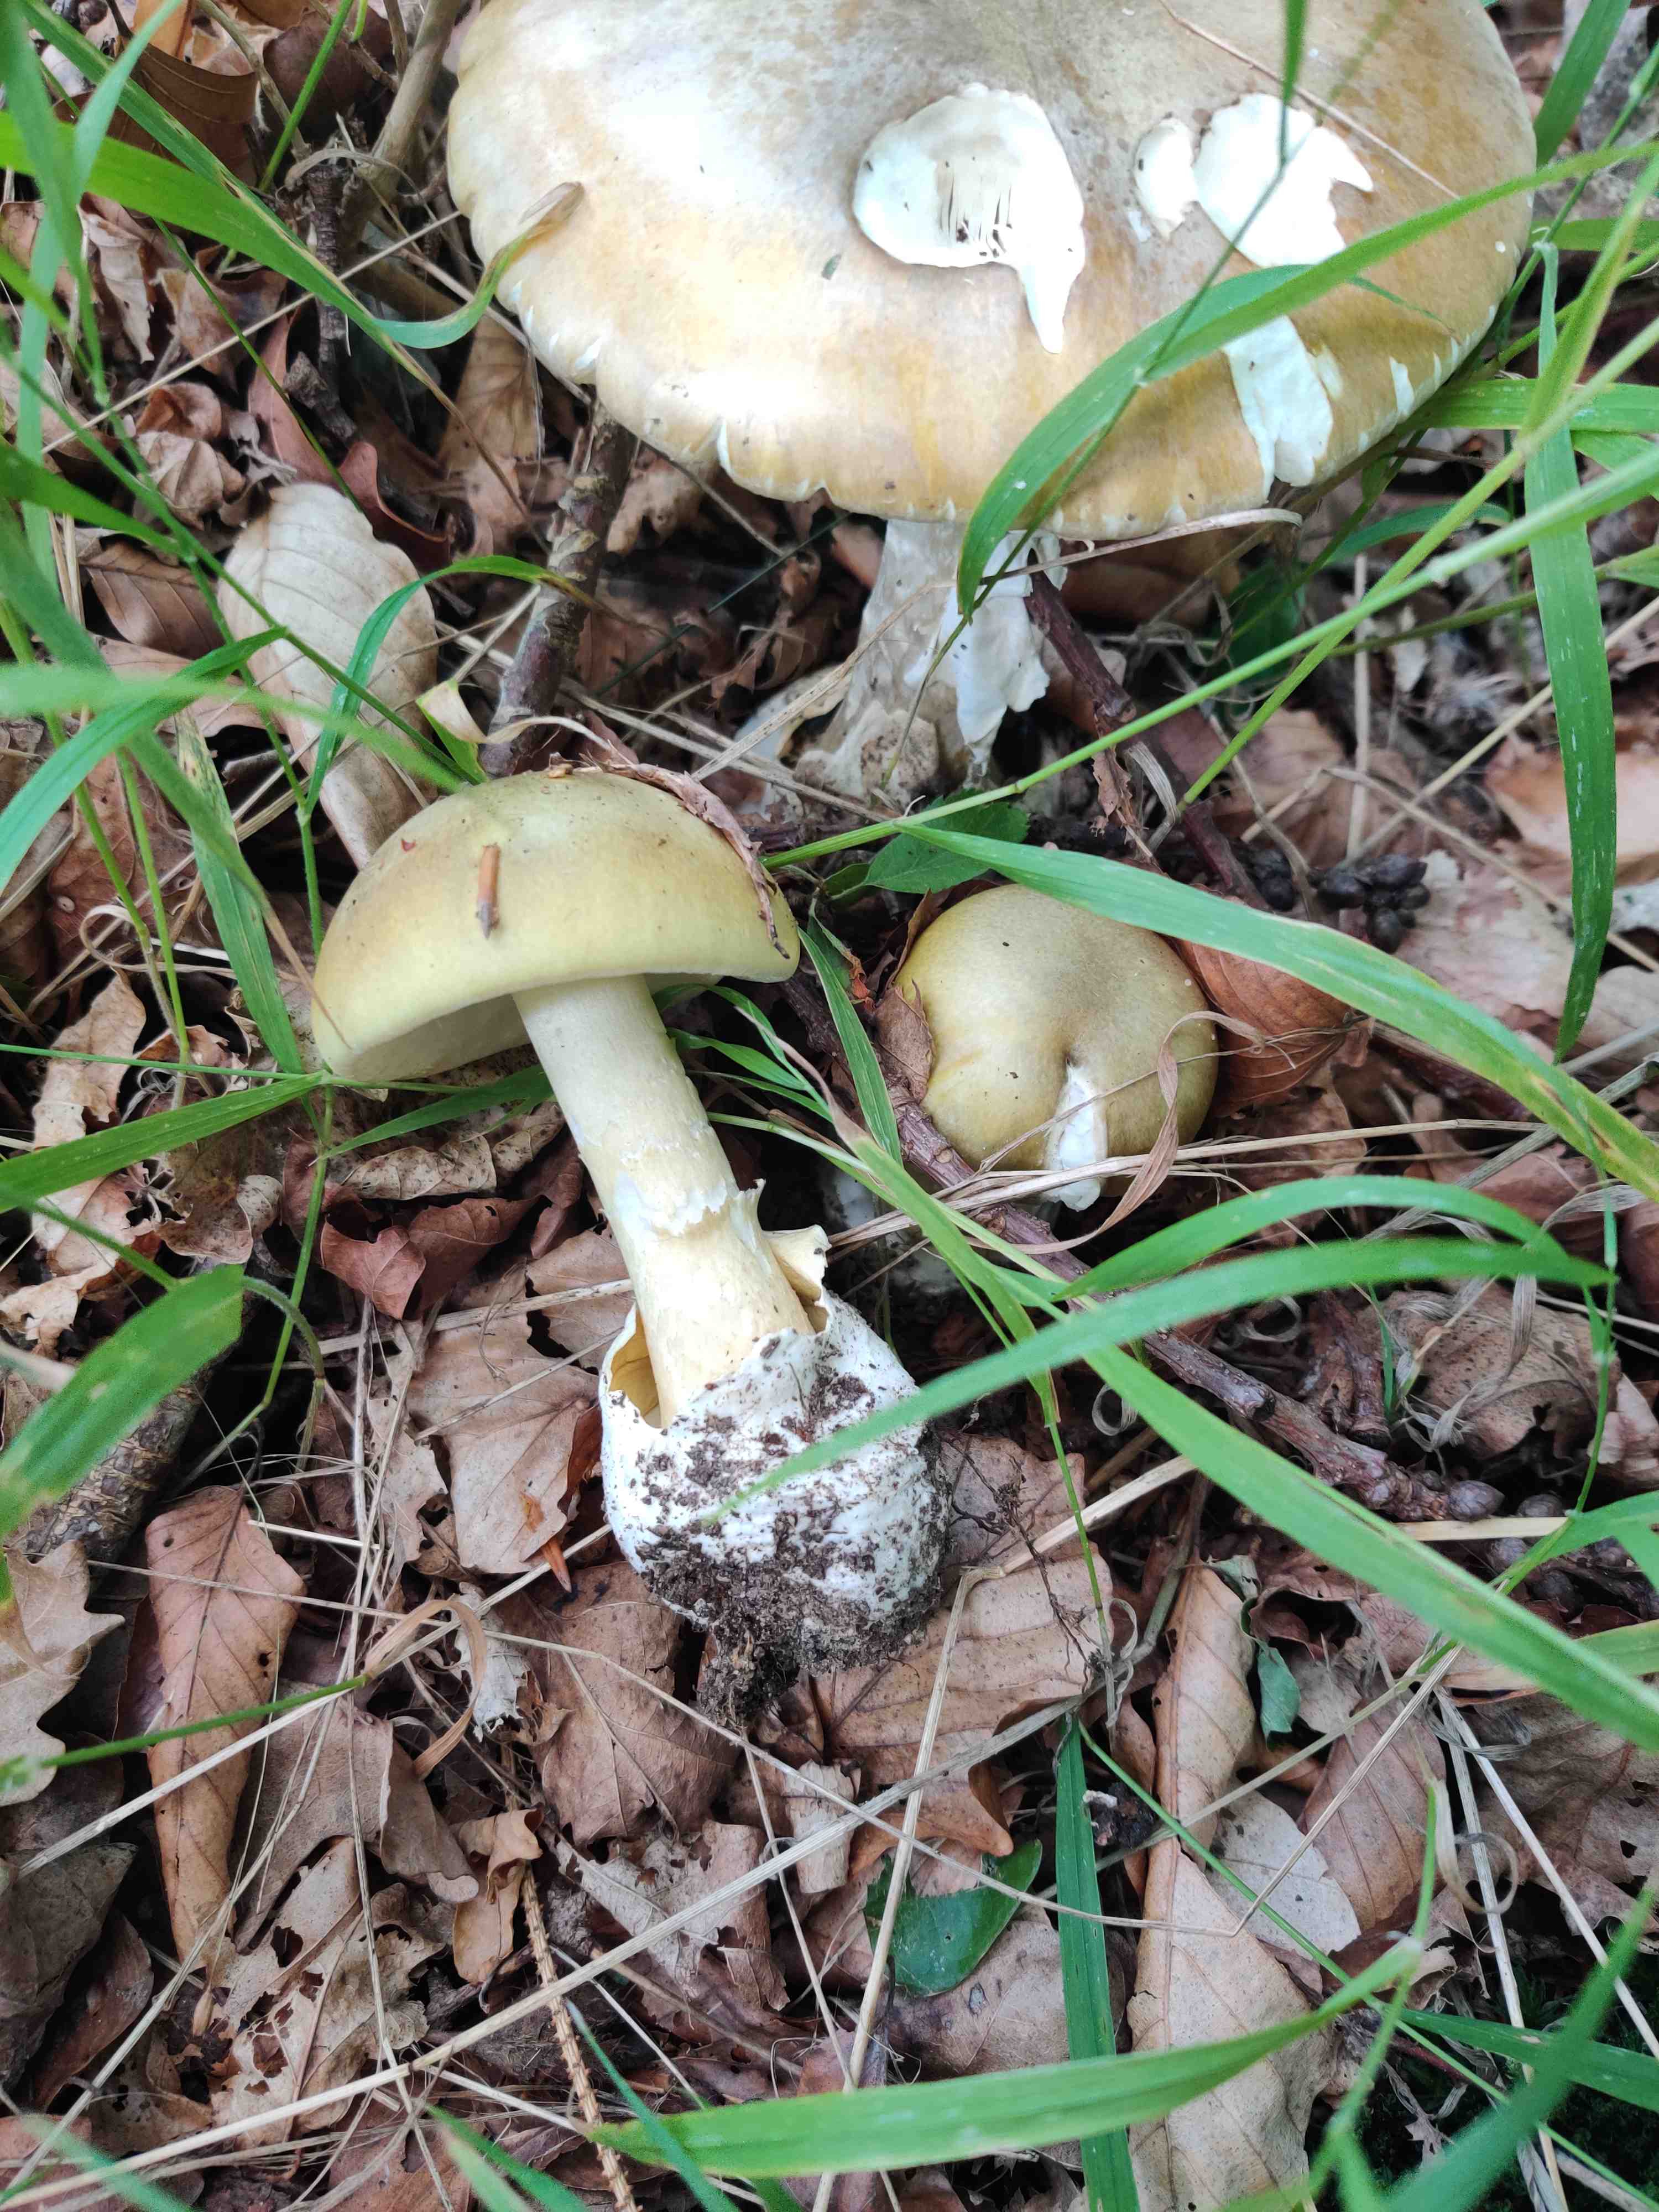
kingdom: Fungi
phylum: Basidiomycota
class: Agaricomycetes
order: Agaricales
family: Amanitaceae
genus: Amanita
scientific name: Amanita phalloides
